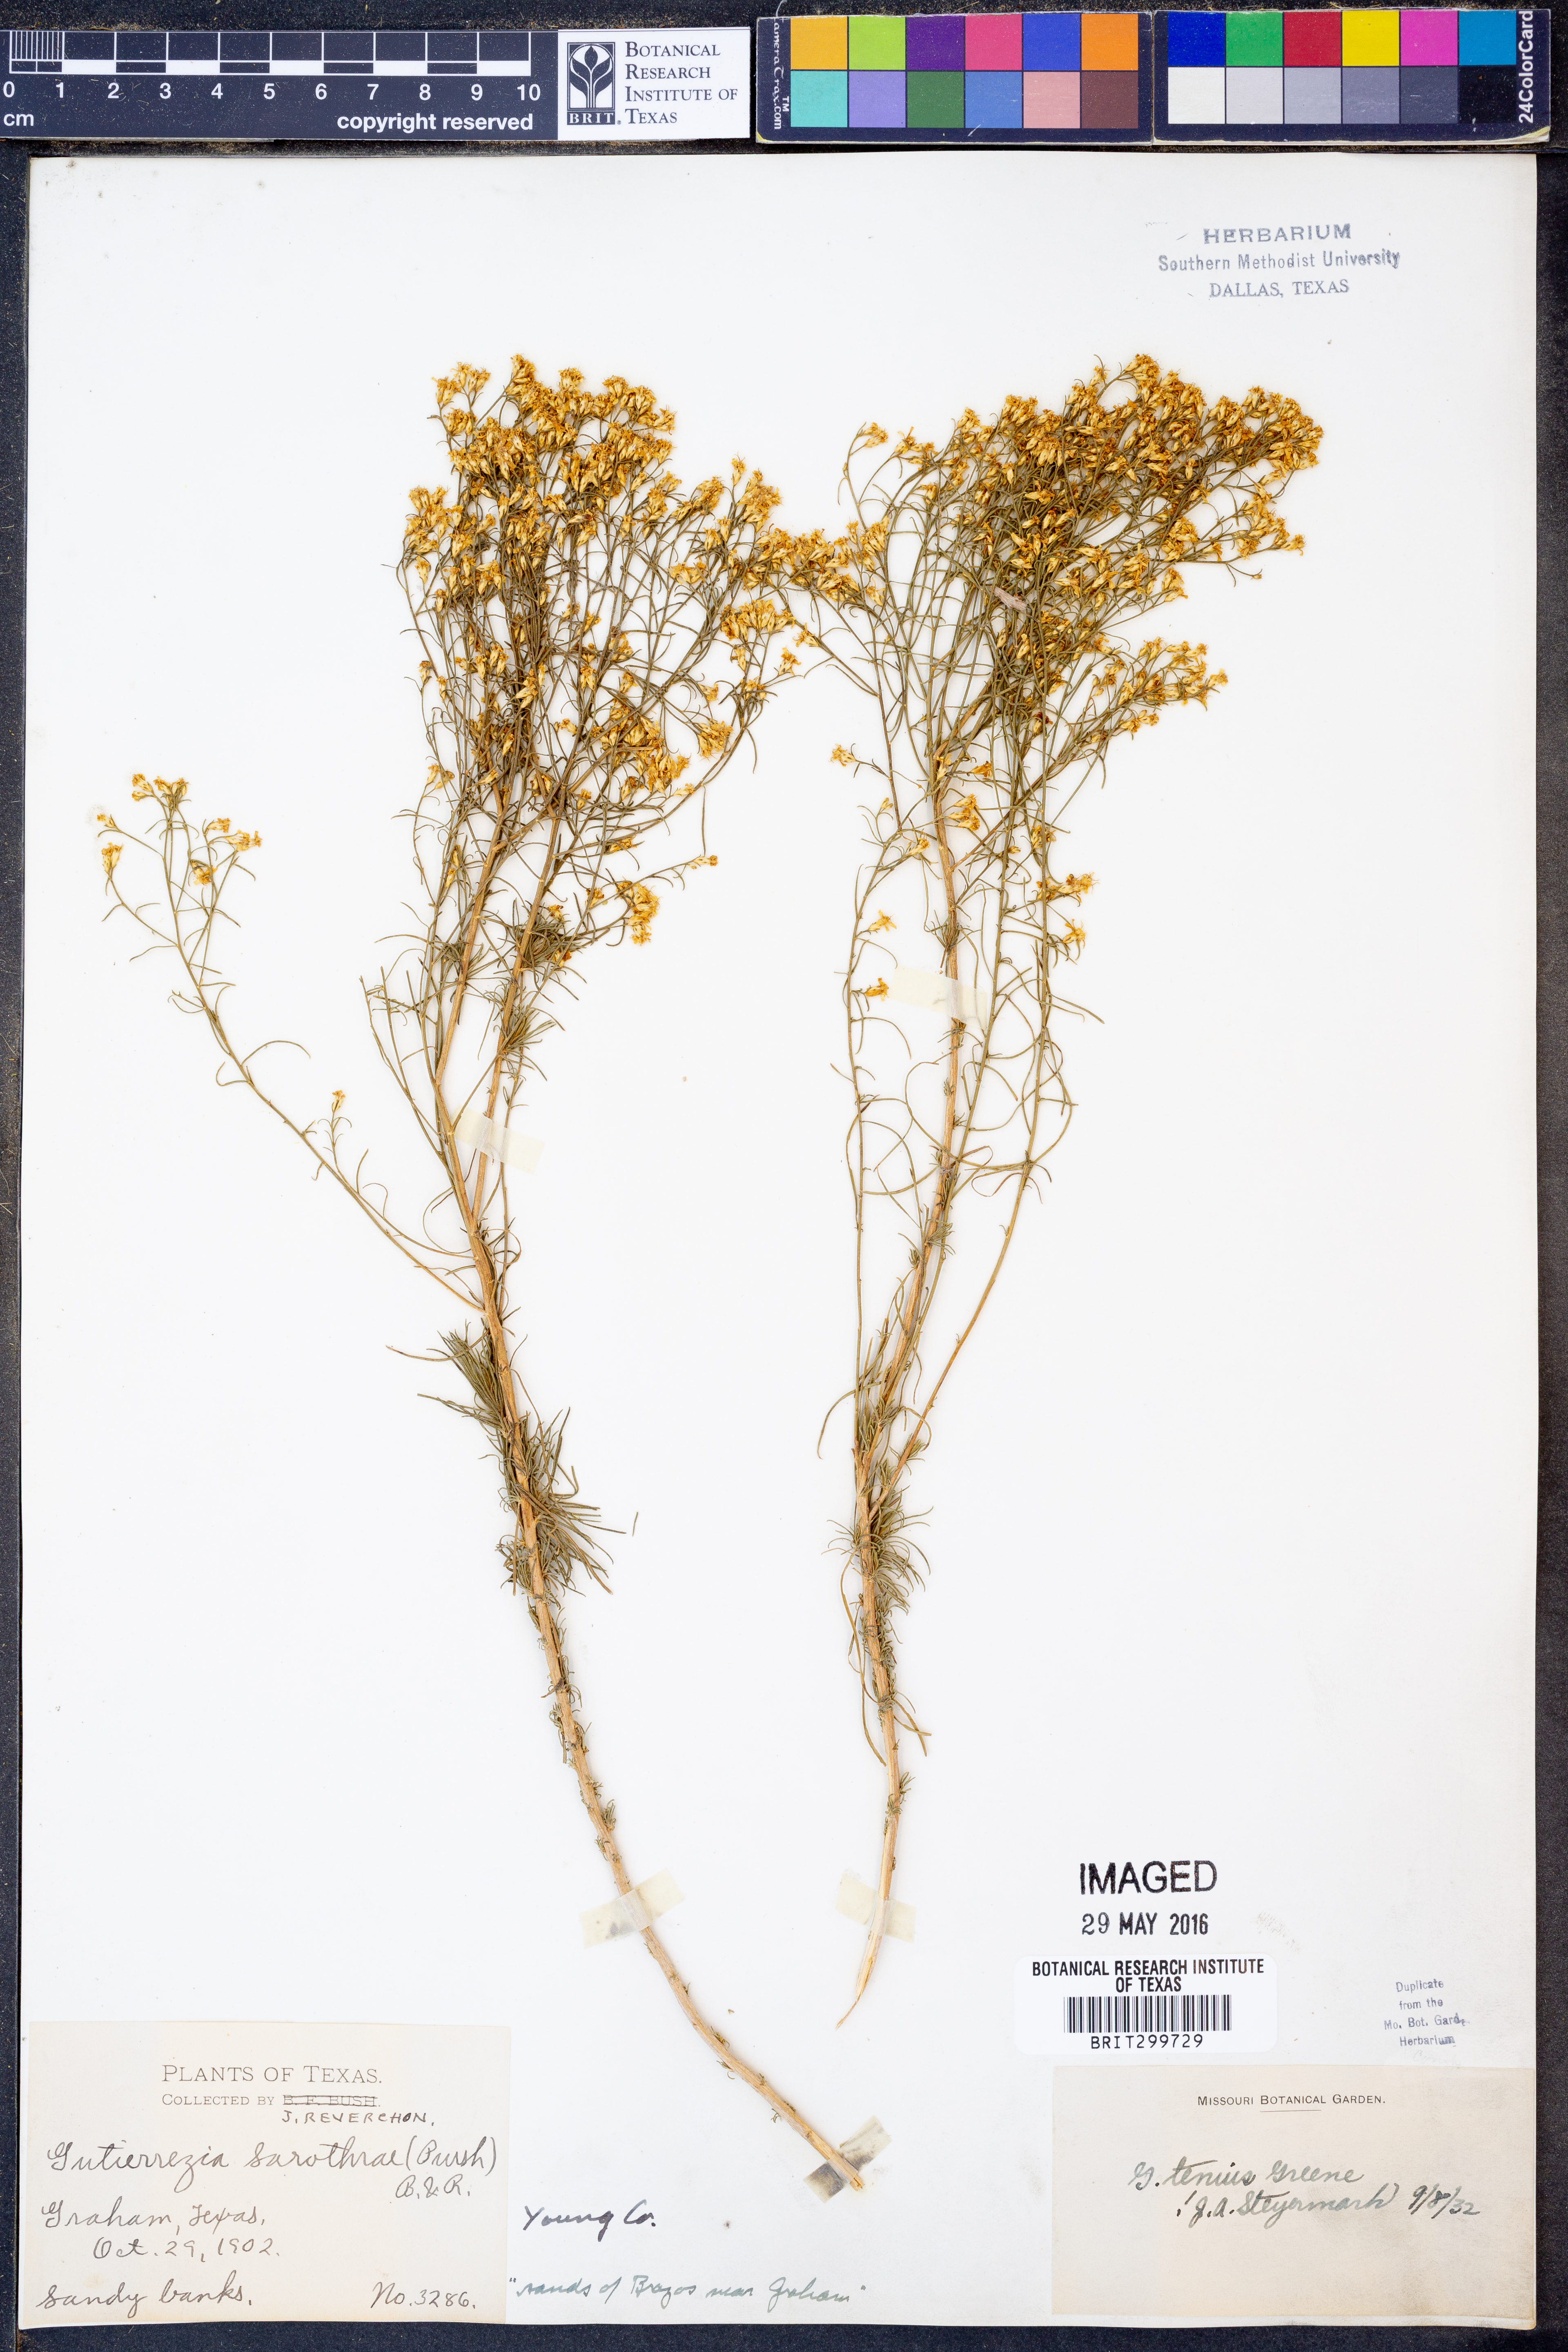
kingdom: Plantae
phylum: Tracheophyta
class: Magnoliopsida
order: Asterales
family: Asteraceae
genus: Gutierrezia
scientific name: Gutierrezia sarothrae
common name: Broom snakeweed
